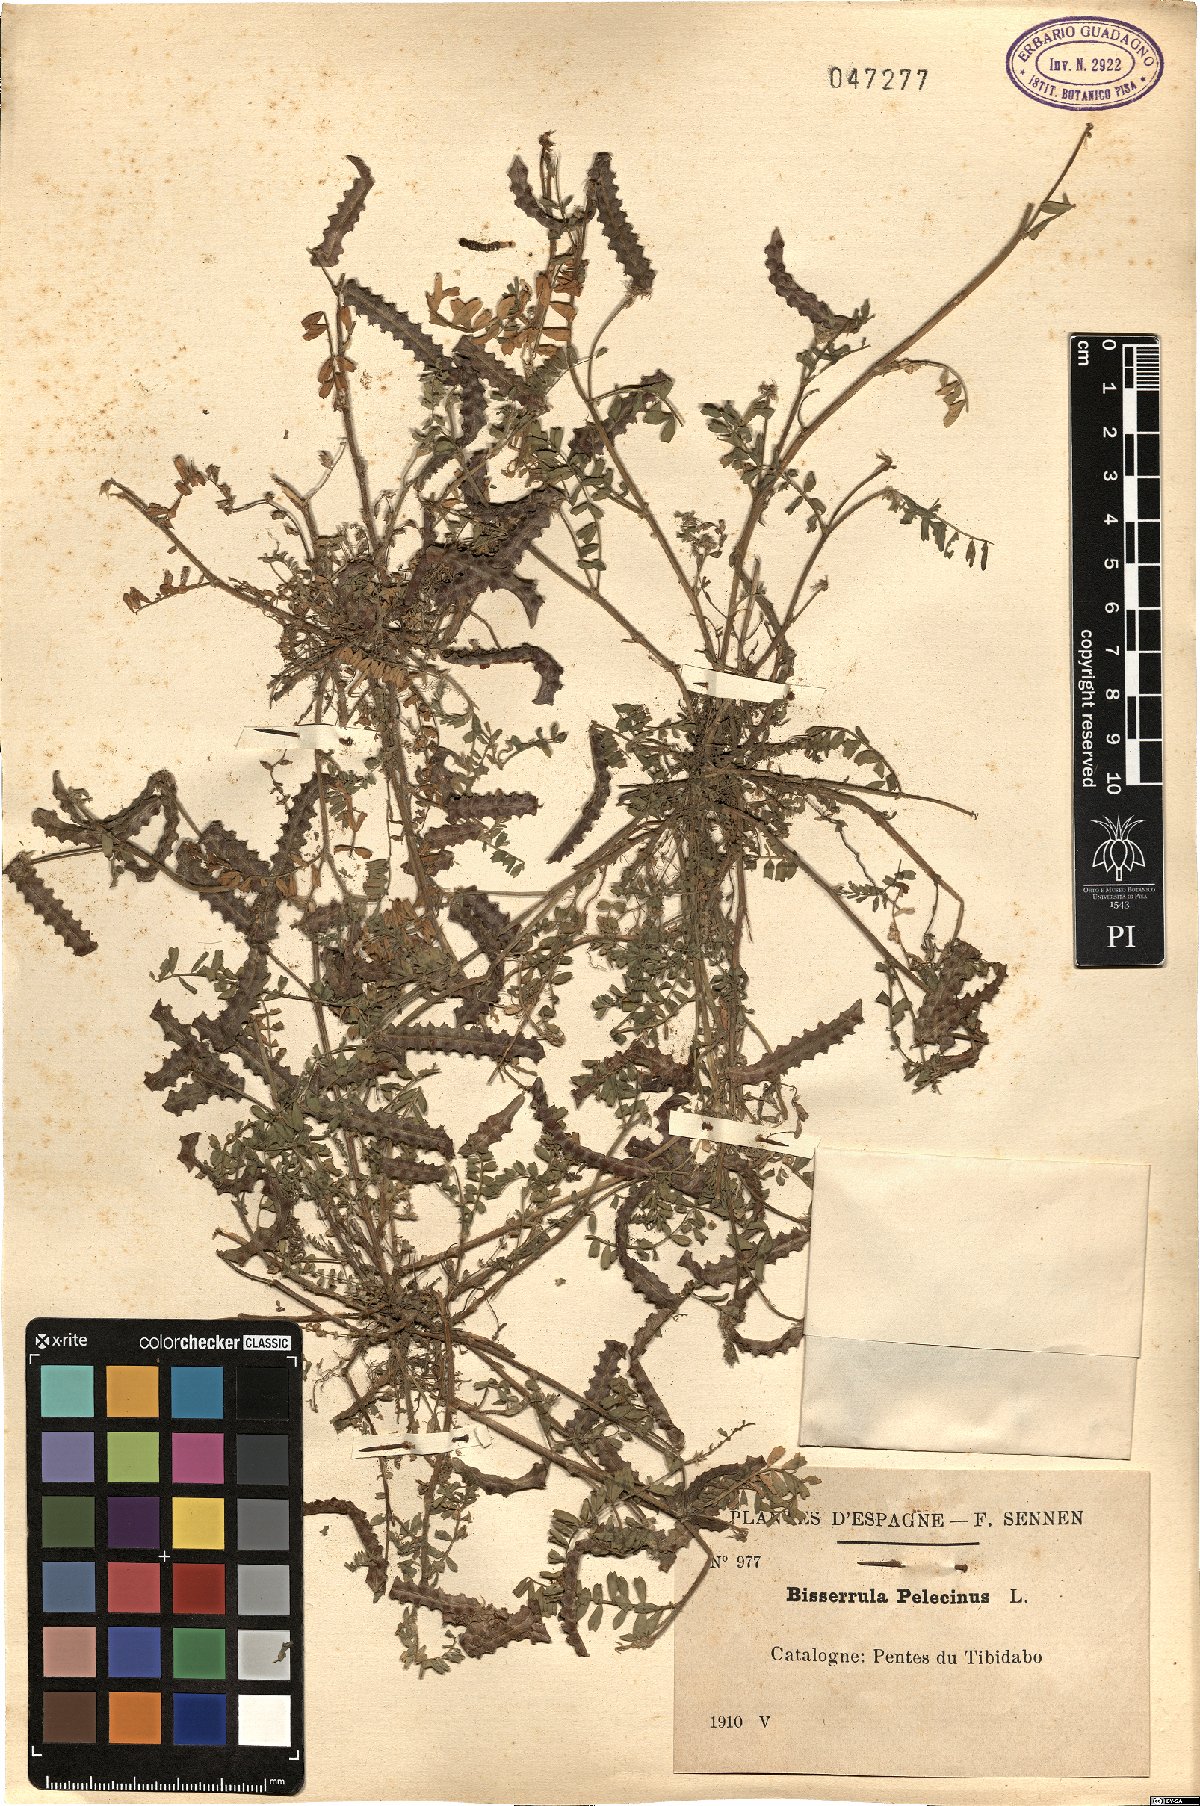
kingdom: Plantae
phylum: Tracheophyta
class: Magnoliopsida
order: Fabales
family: Fabaceae
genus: Biserrula
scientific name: Biserrula pelecinus
